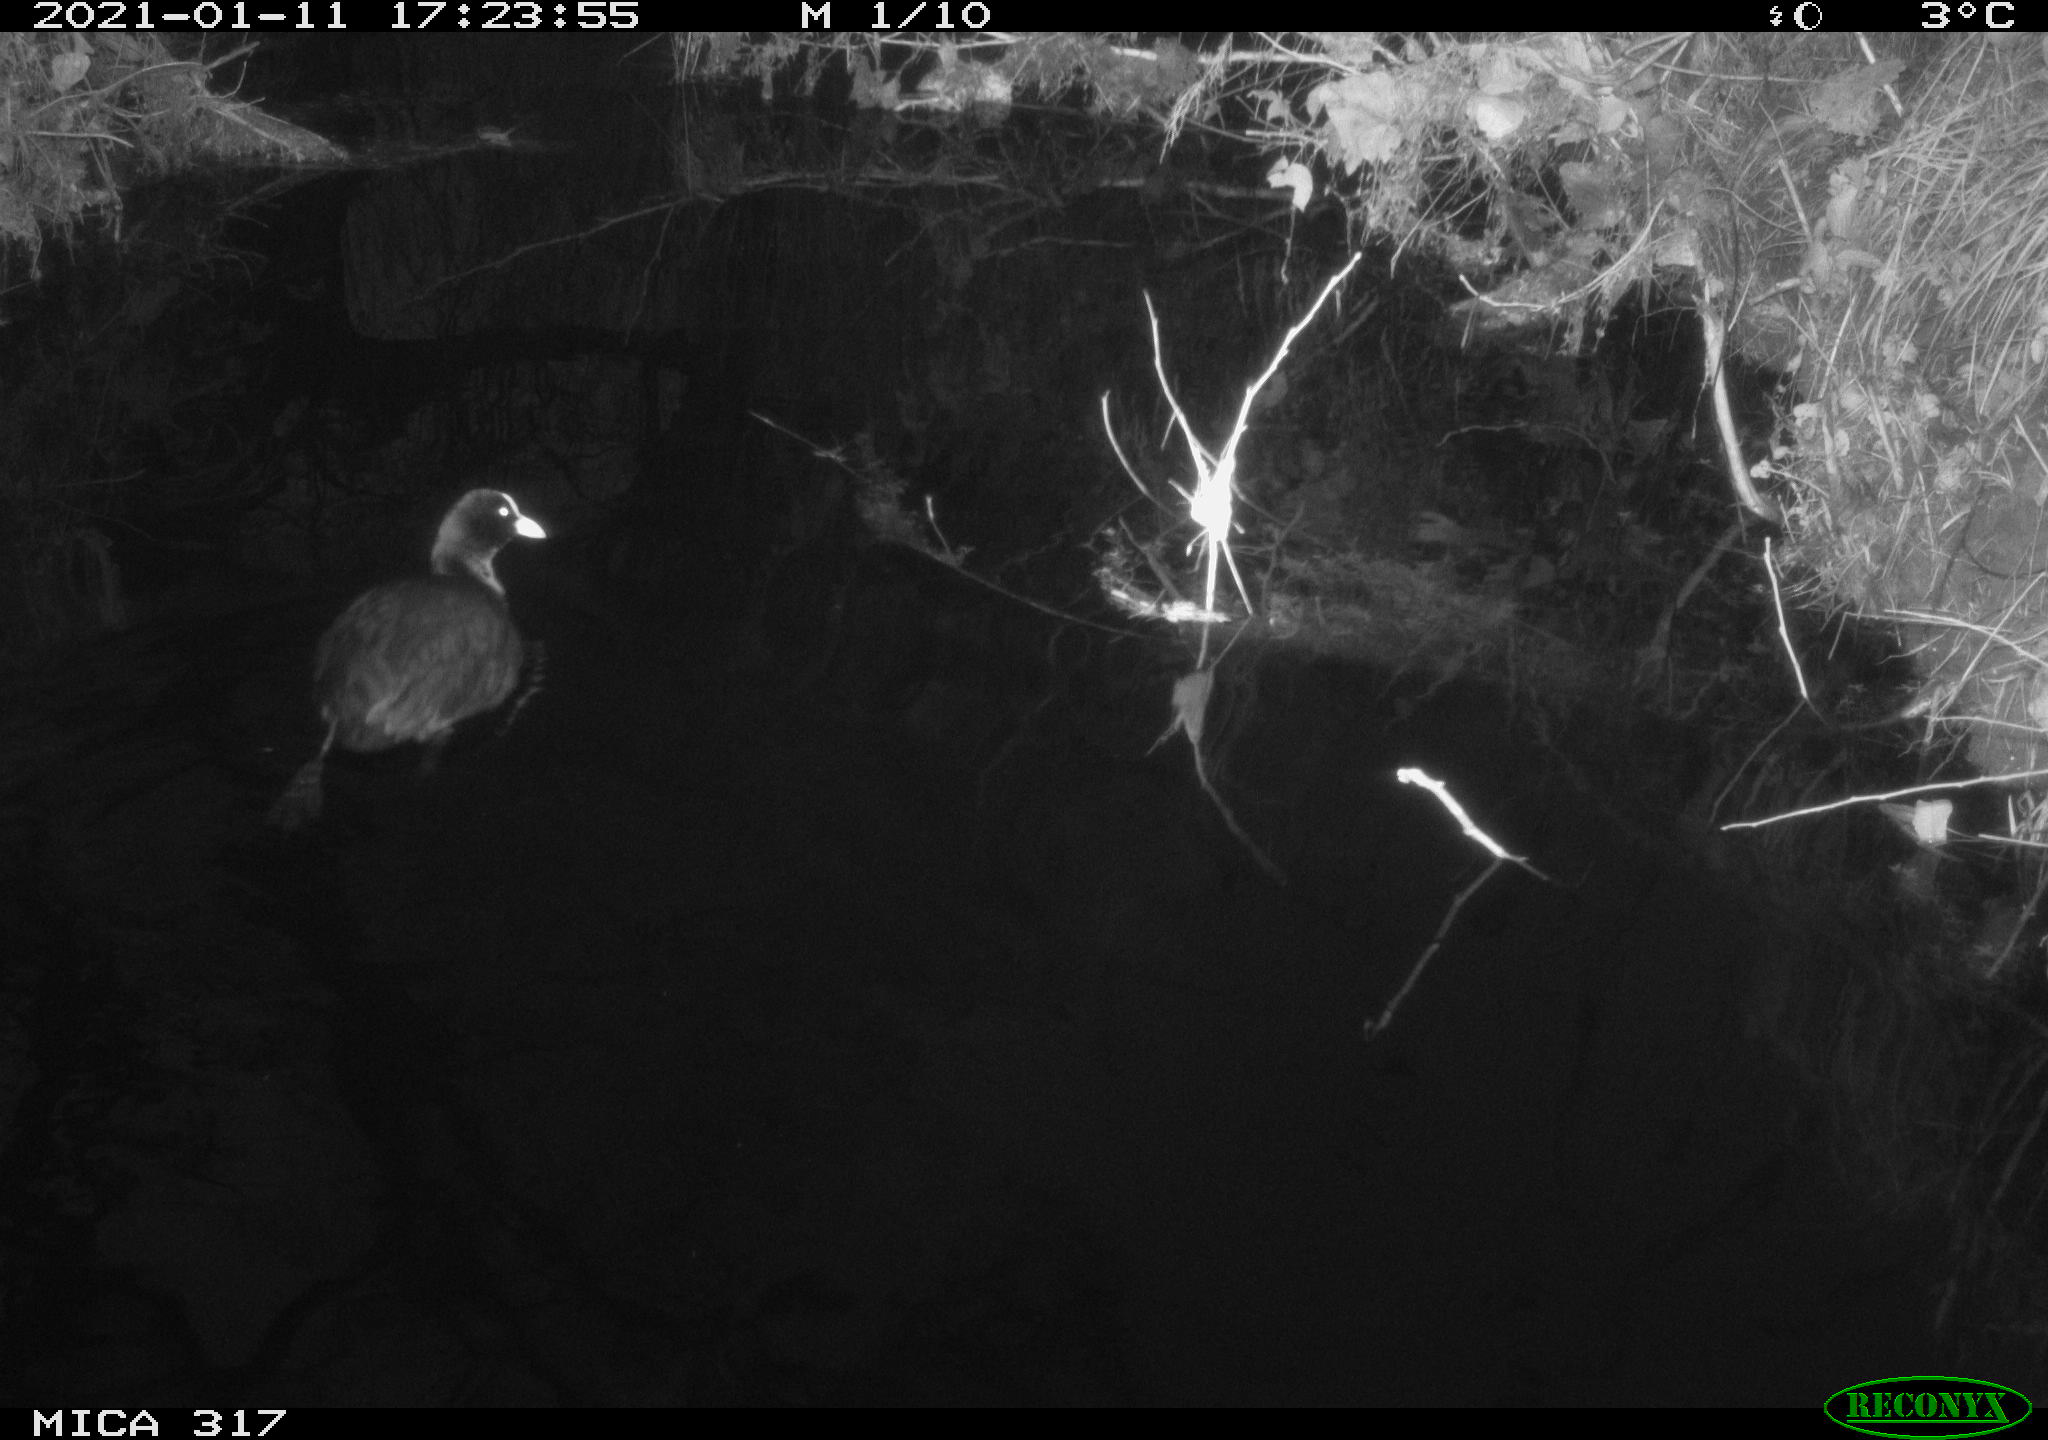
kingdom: Animalia
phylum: Chordata
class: Aves
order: Gruiformes
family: Rallidae
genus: Fulica
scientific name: Fulica atra
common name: Eurasian coot
